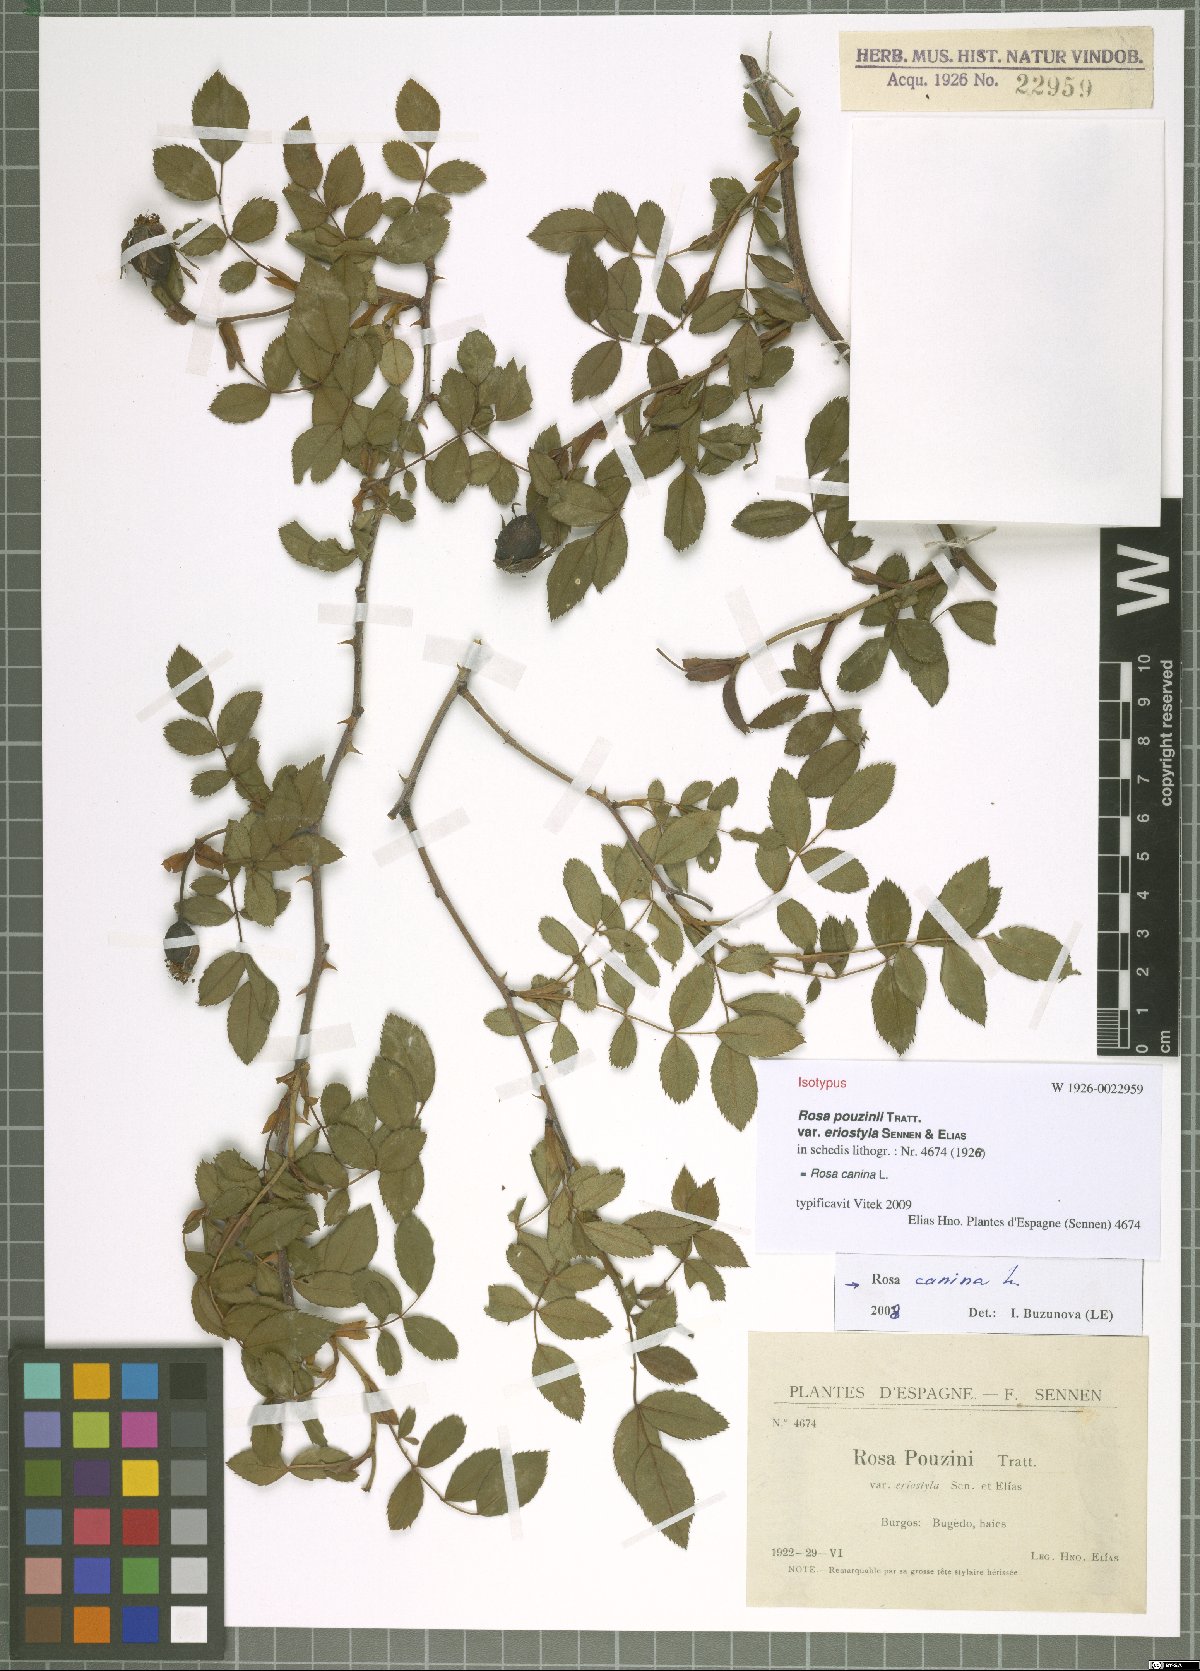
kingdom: Plantae
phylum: Tracheophyta
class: Magnoliopsida
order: Rosales
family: Rosaceae
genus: Rosa
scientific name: Rosa canina
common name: Dog rose
